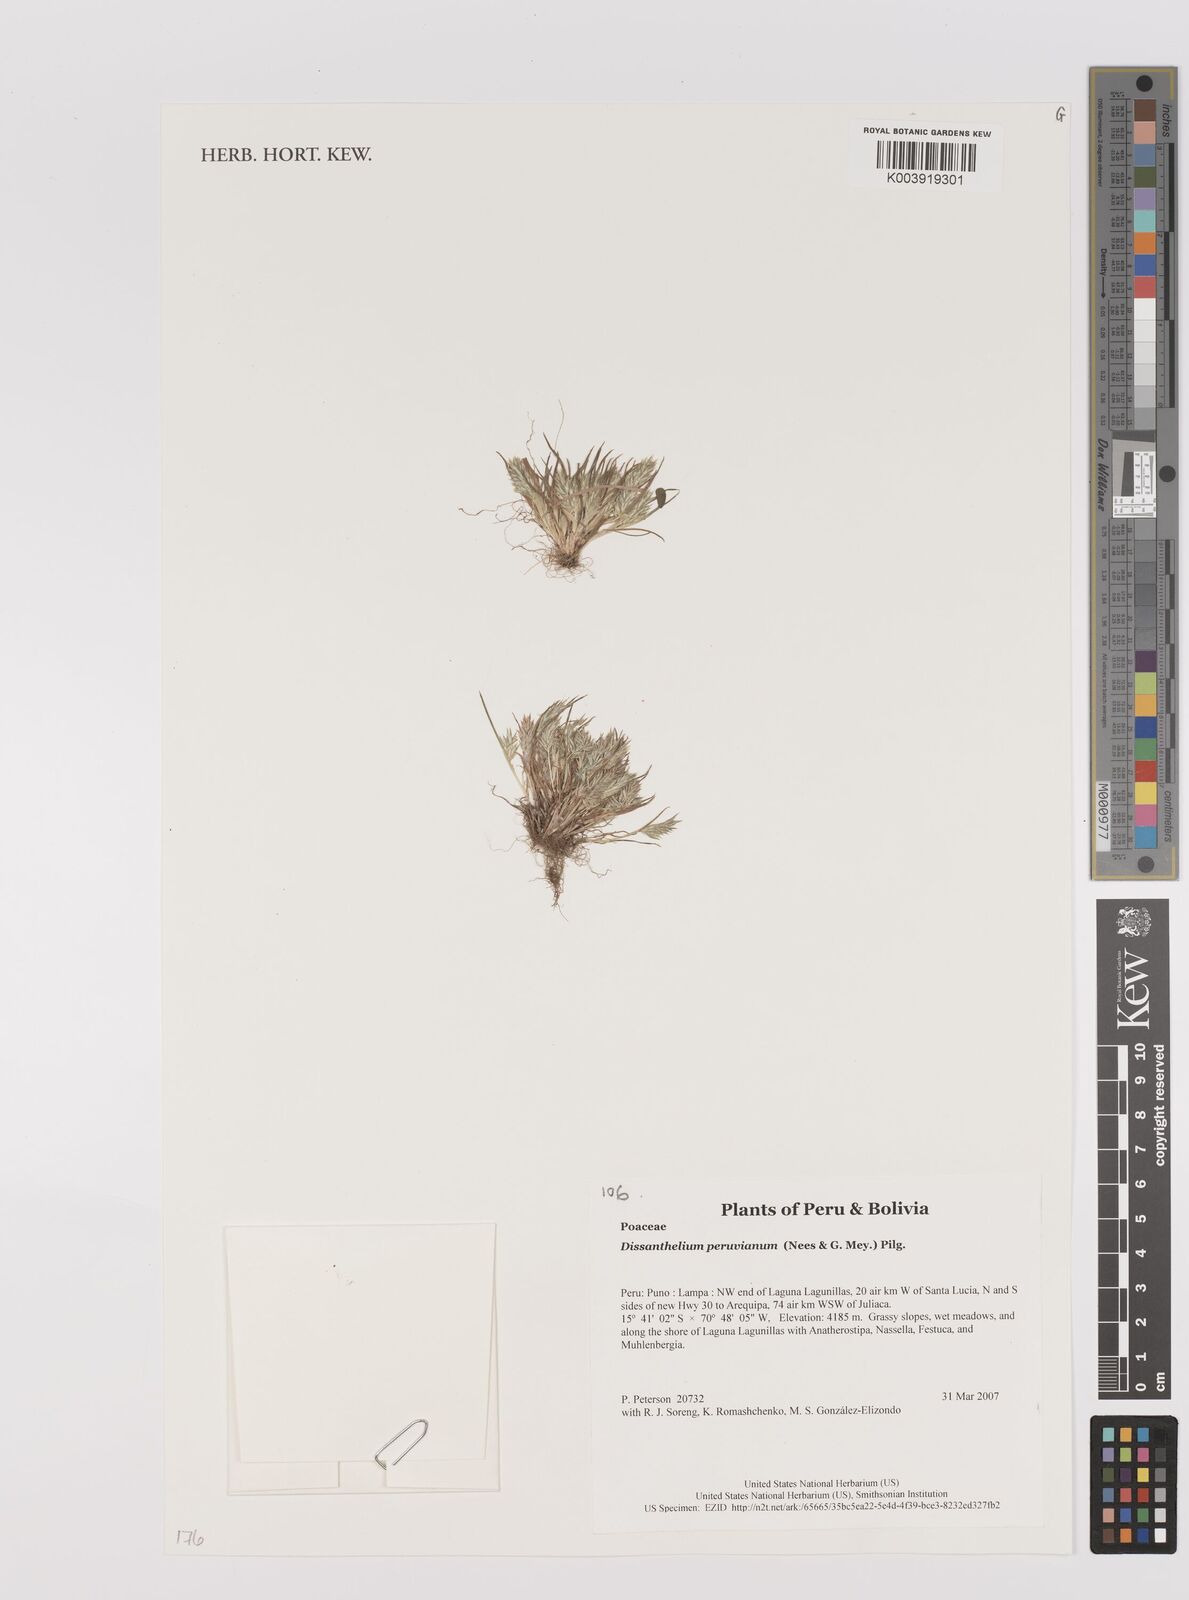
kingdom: Plantae
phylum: Tracheophyta
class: Liliopsida
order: Poales
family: Poaceae
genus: Poa
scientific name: Poa serpana
